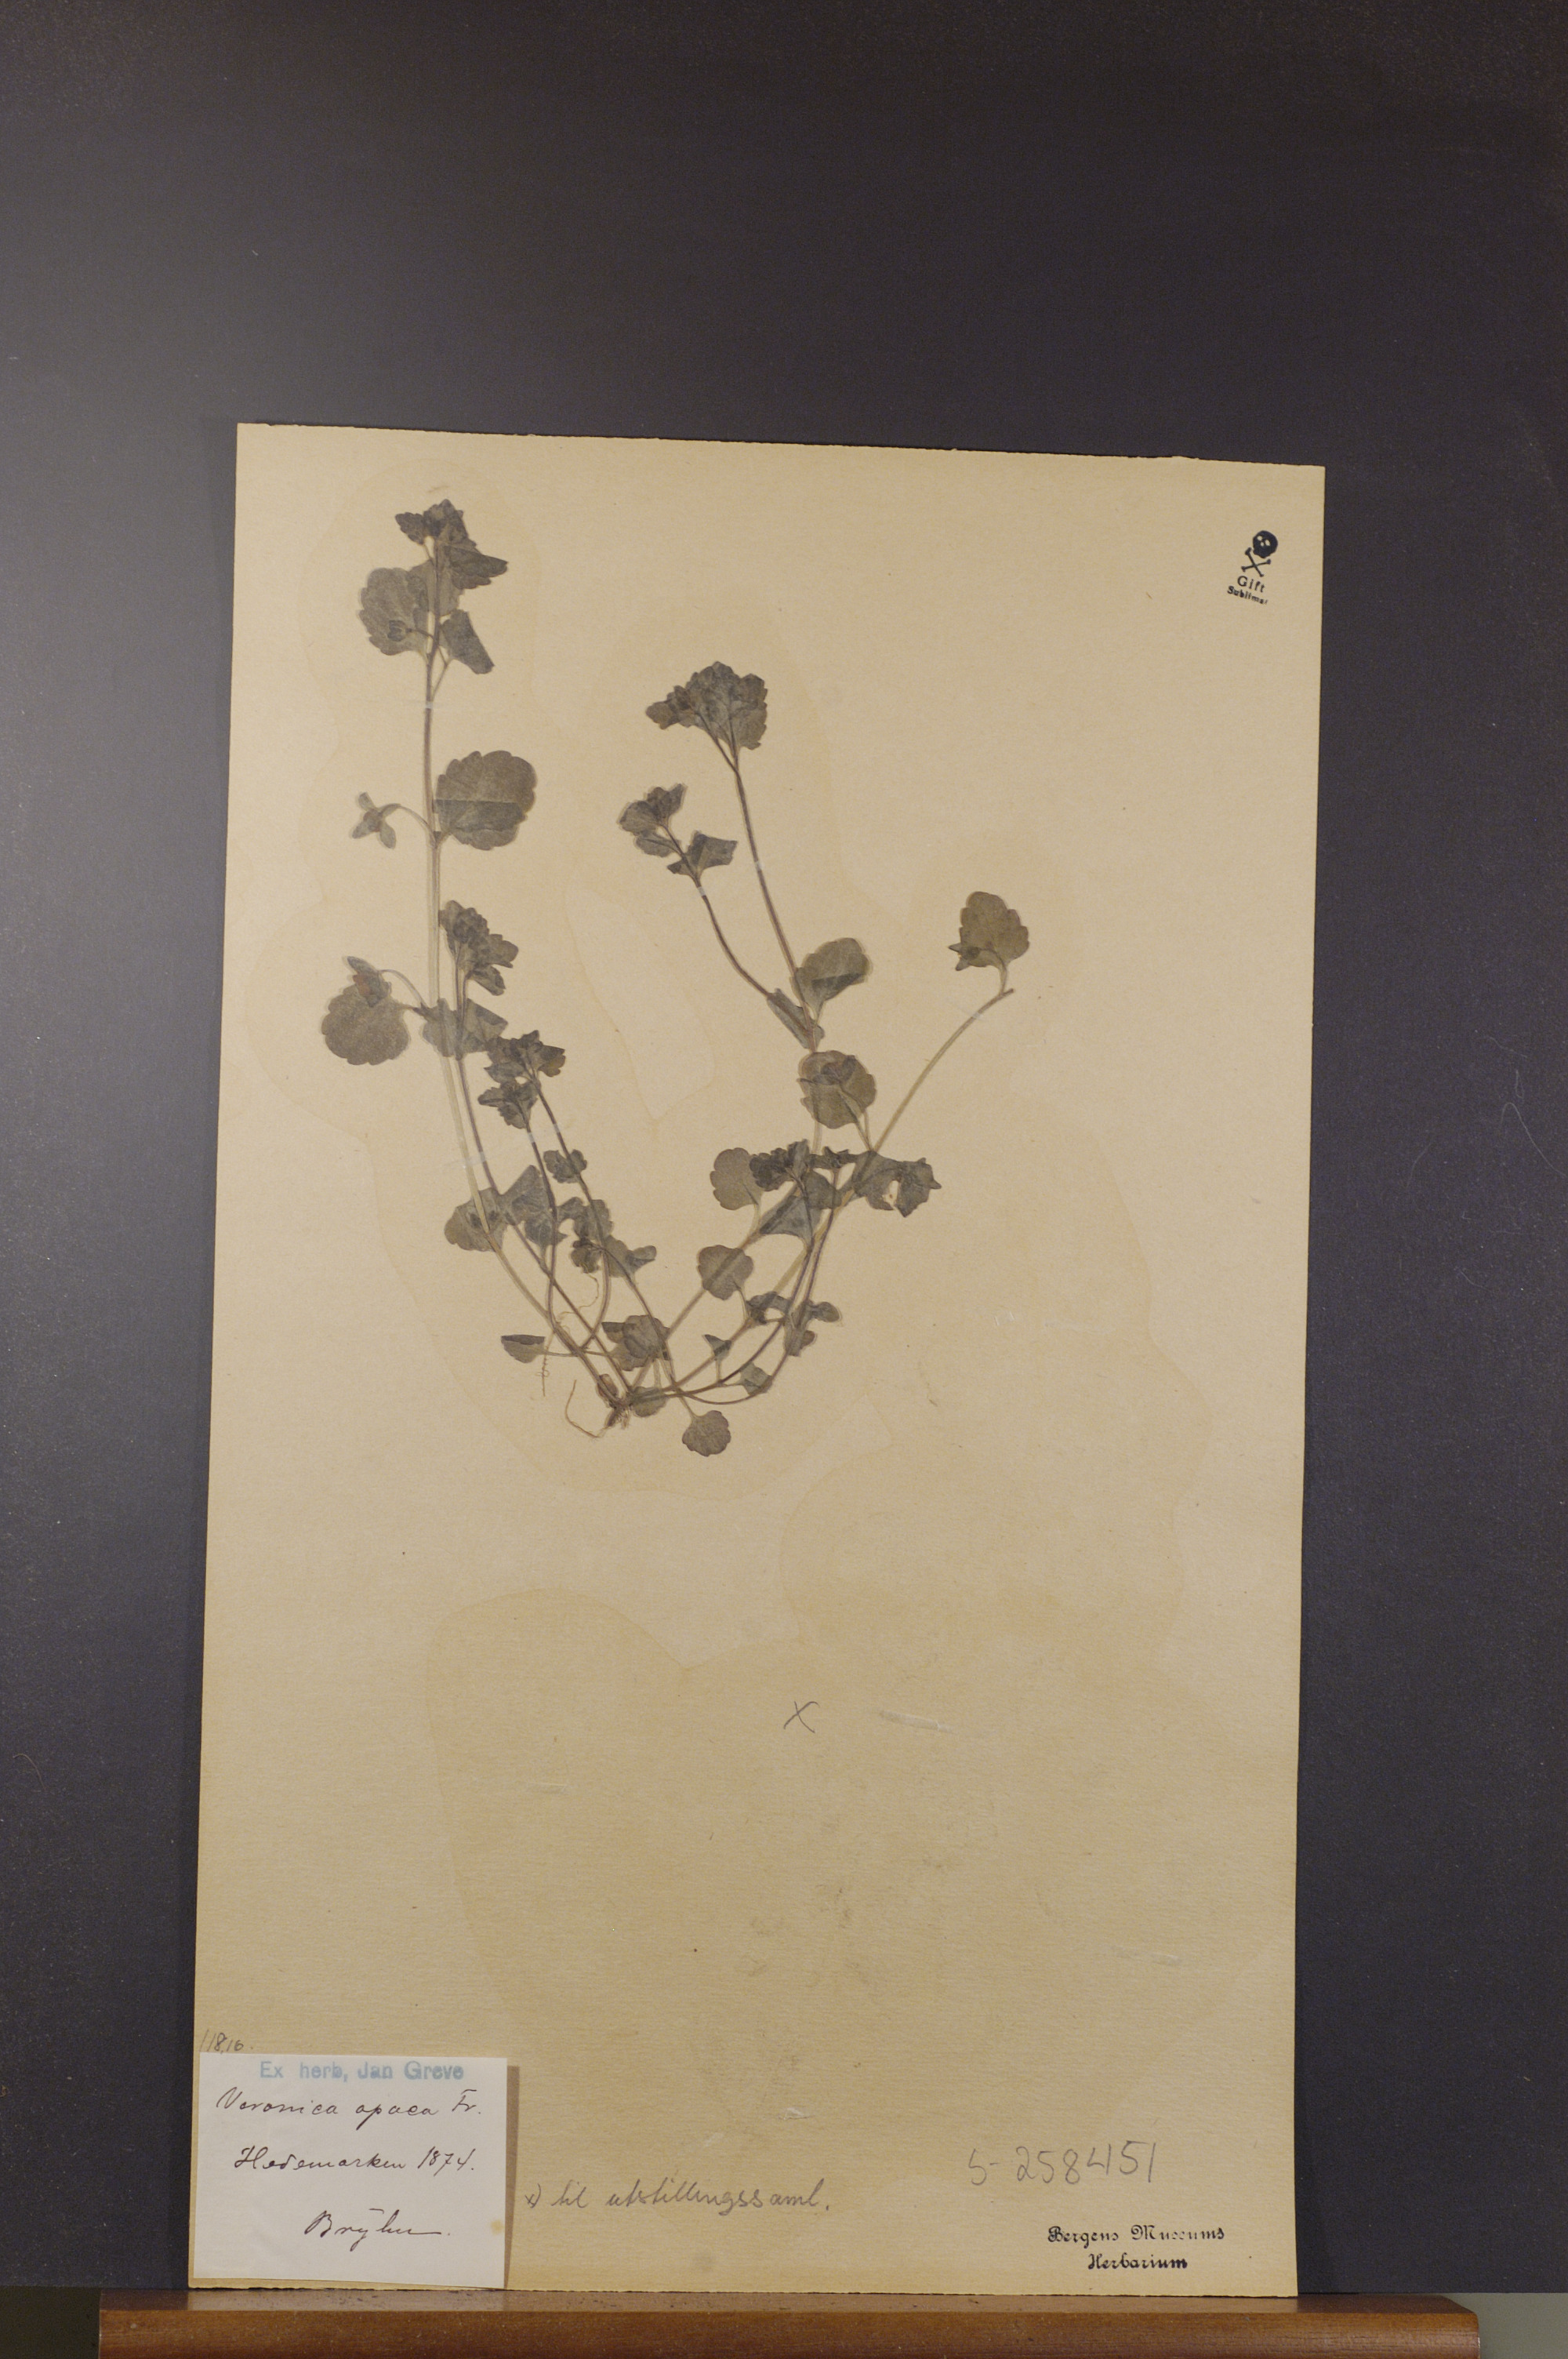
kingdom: Plantae
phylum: Tracheophyta
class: Magnoliopsida
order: Lamiales
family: Plantaginaceae
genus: Veronica
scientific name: Veronica opaca
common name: Dark speedwell
